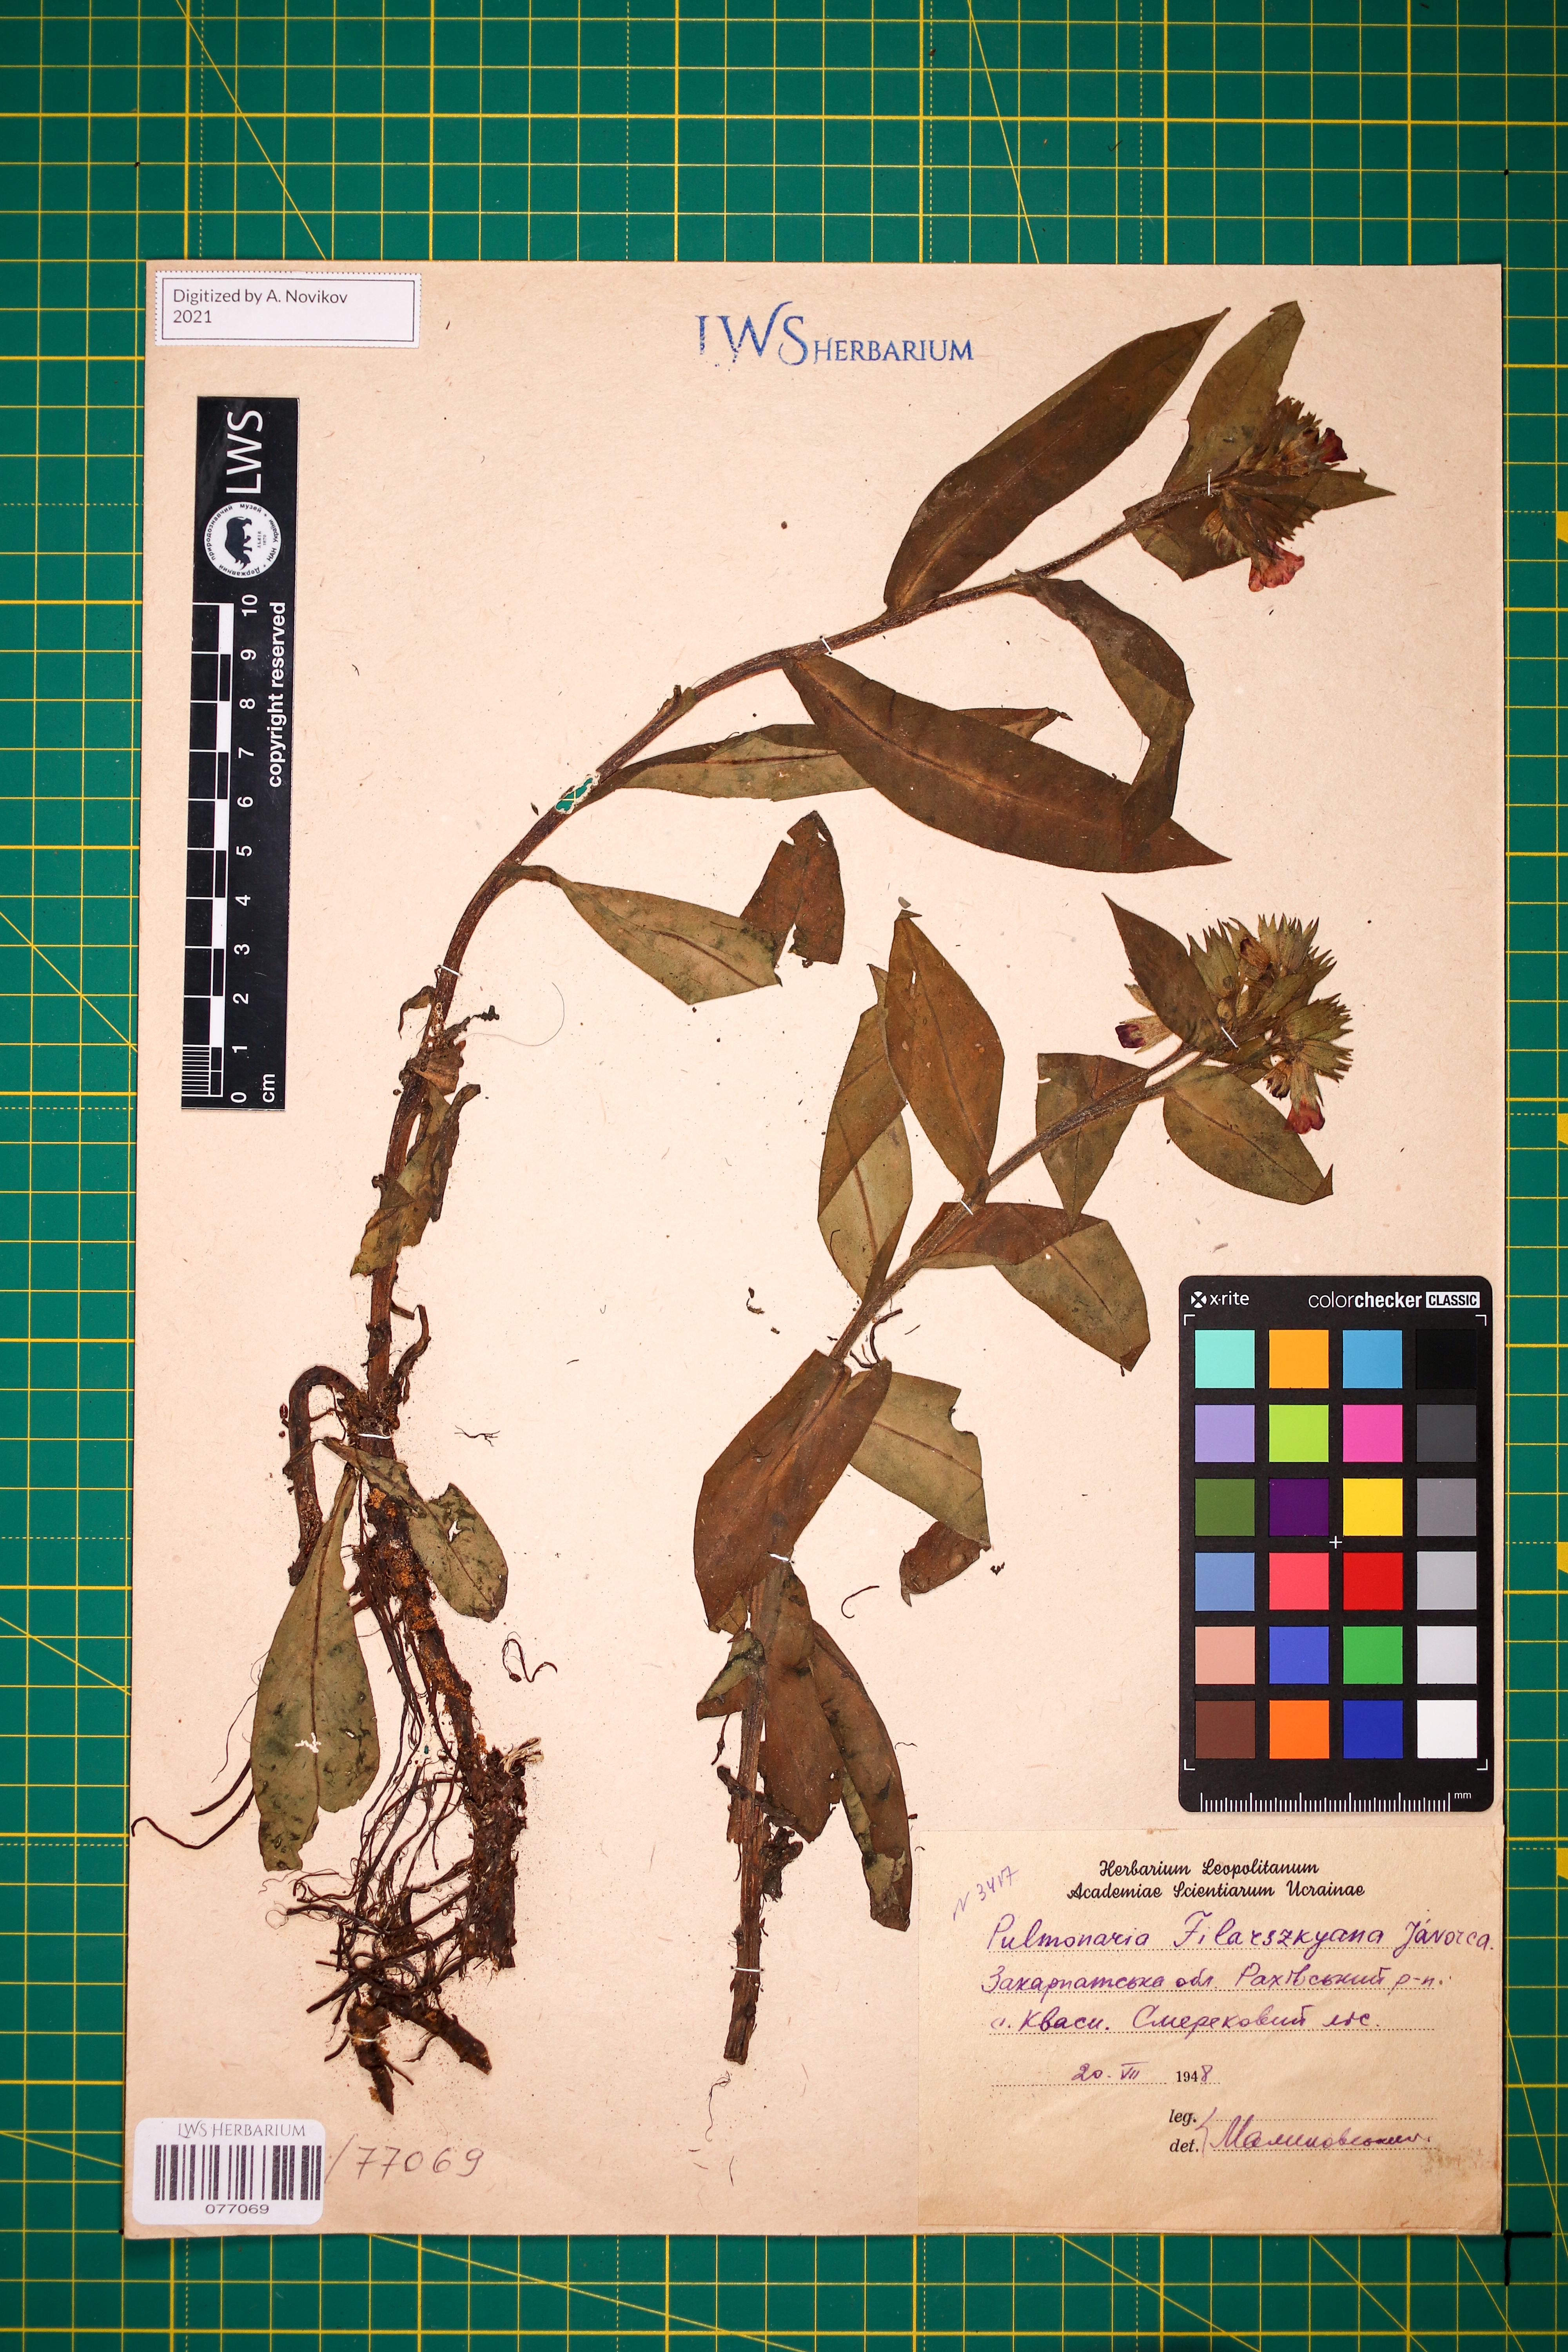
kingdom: Plantae
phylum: Tracheophyta
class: Magnoliopsida
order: Boraginales
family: Boraginaceae
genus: Pulmonaria
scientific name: Pulmonaria filarszkyana
